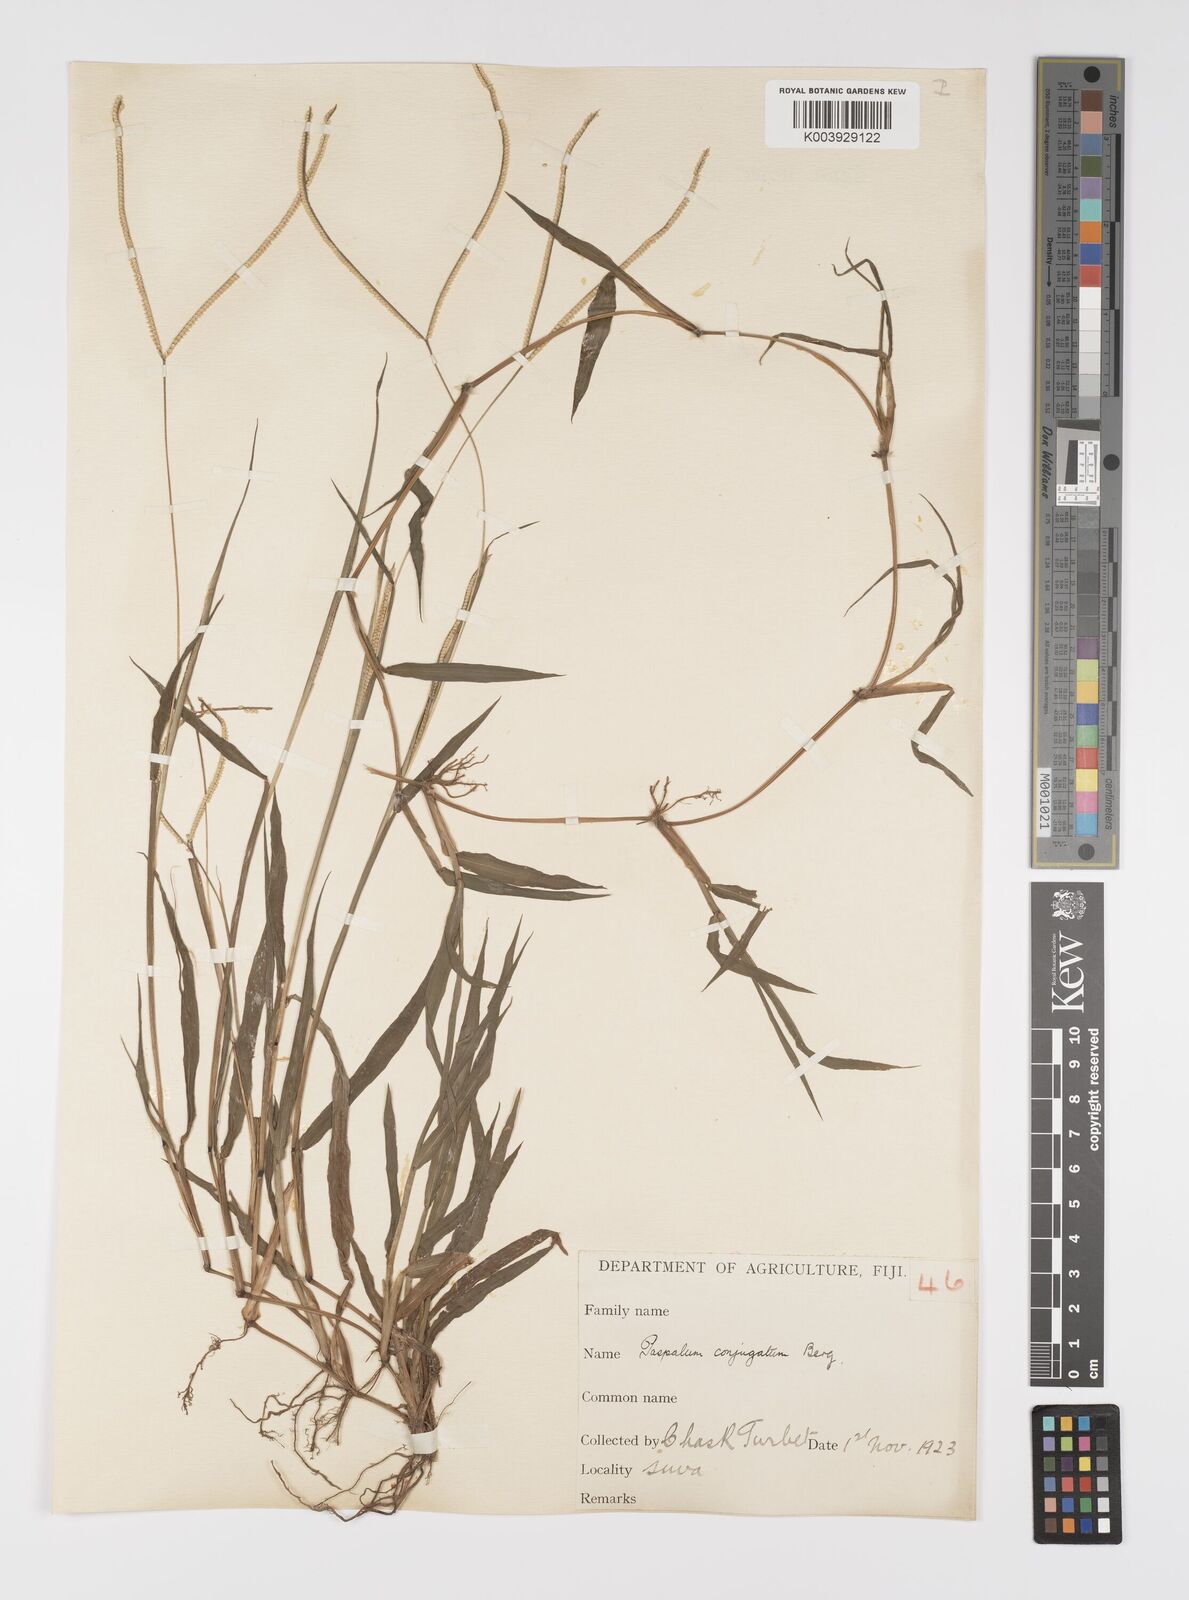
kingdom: Plantae
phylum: Tracheophyta
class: Liliopsida
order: Poales
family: Poaceae
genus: Paspalum
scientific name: Paspalum conjugatum
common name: Hilograss
